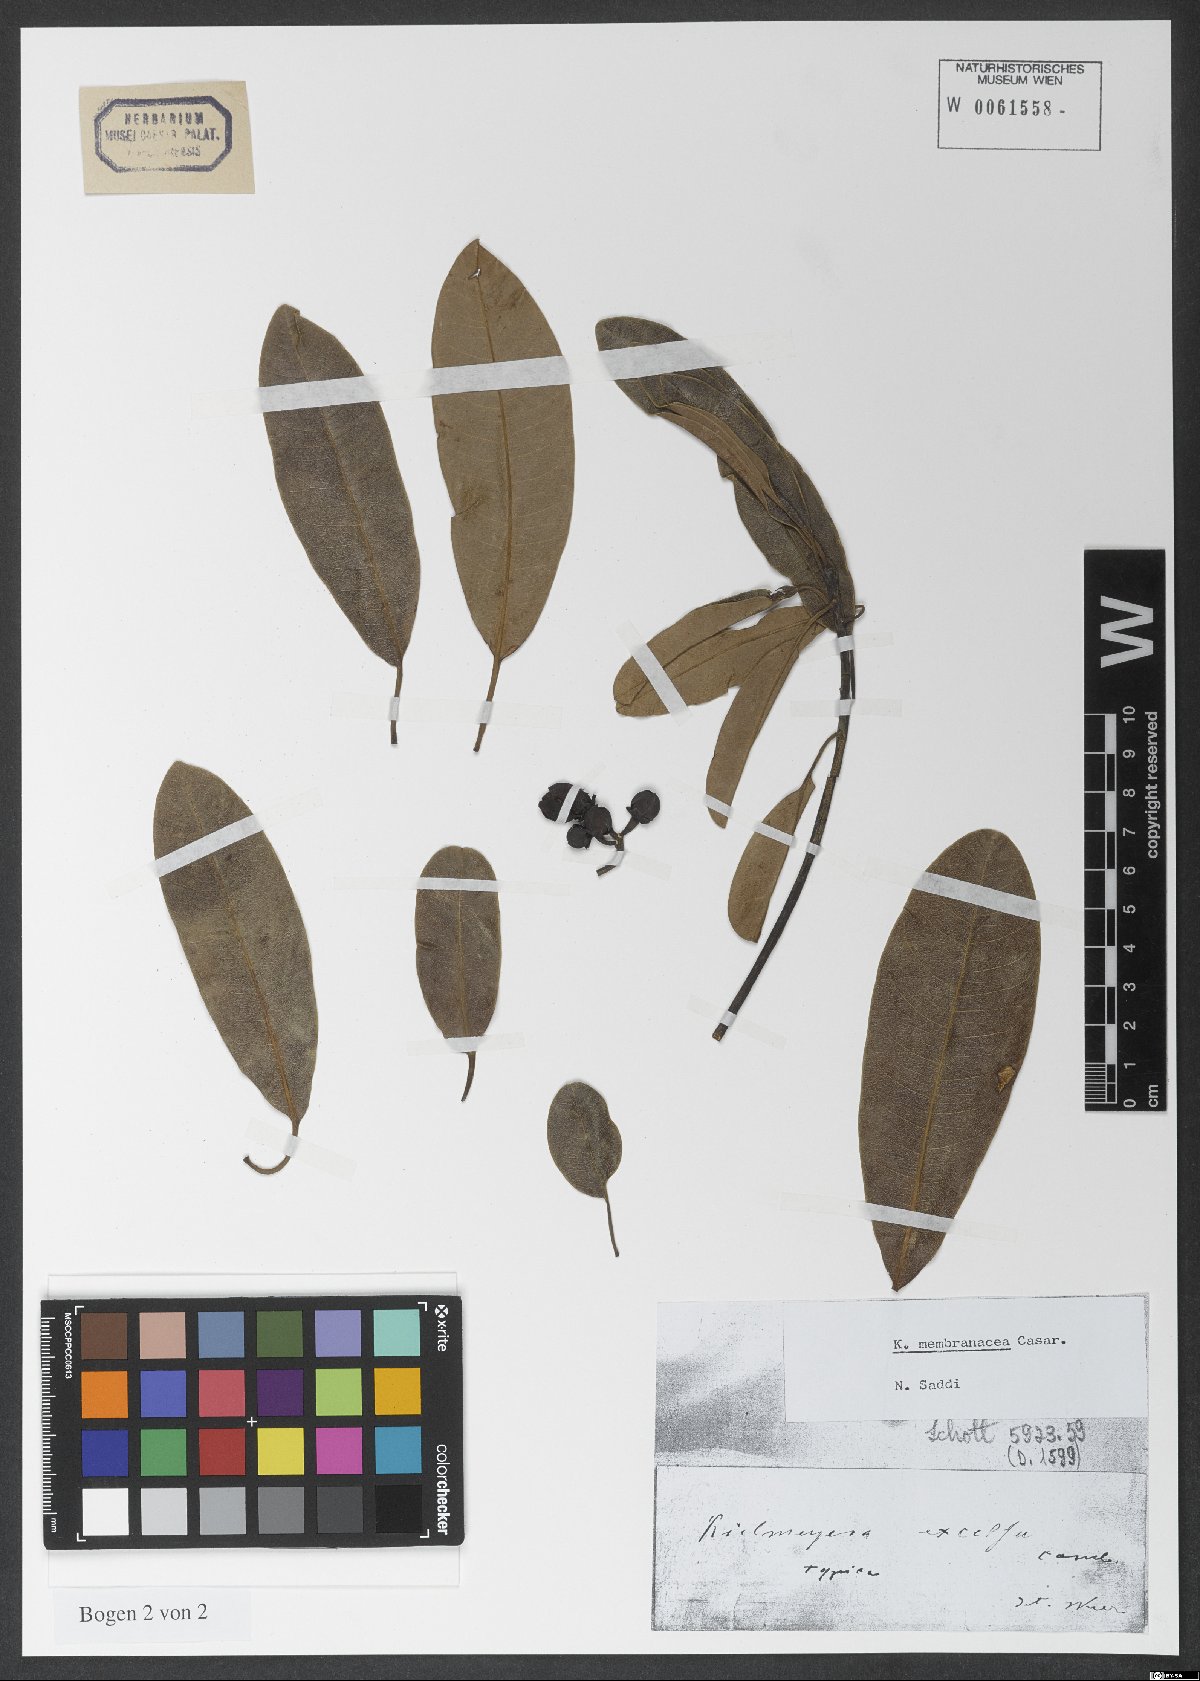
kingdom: Plantae
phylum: Tracheophyta
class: Magnoliopsida
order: Malpighiales
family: Calophyllaceae
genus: Kielmeyera
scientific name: Kielmeyera membranacea
